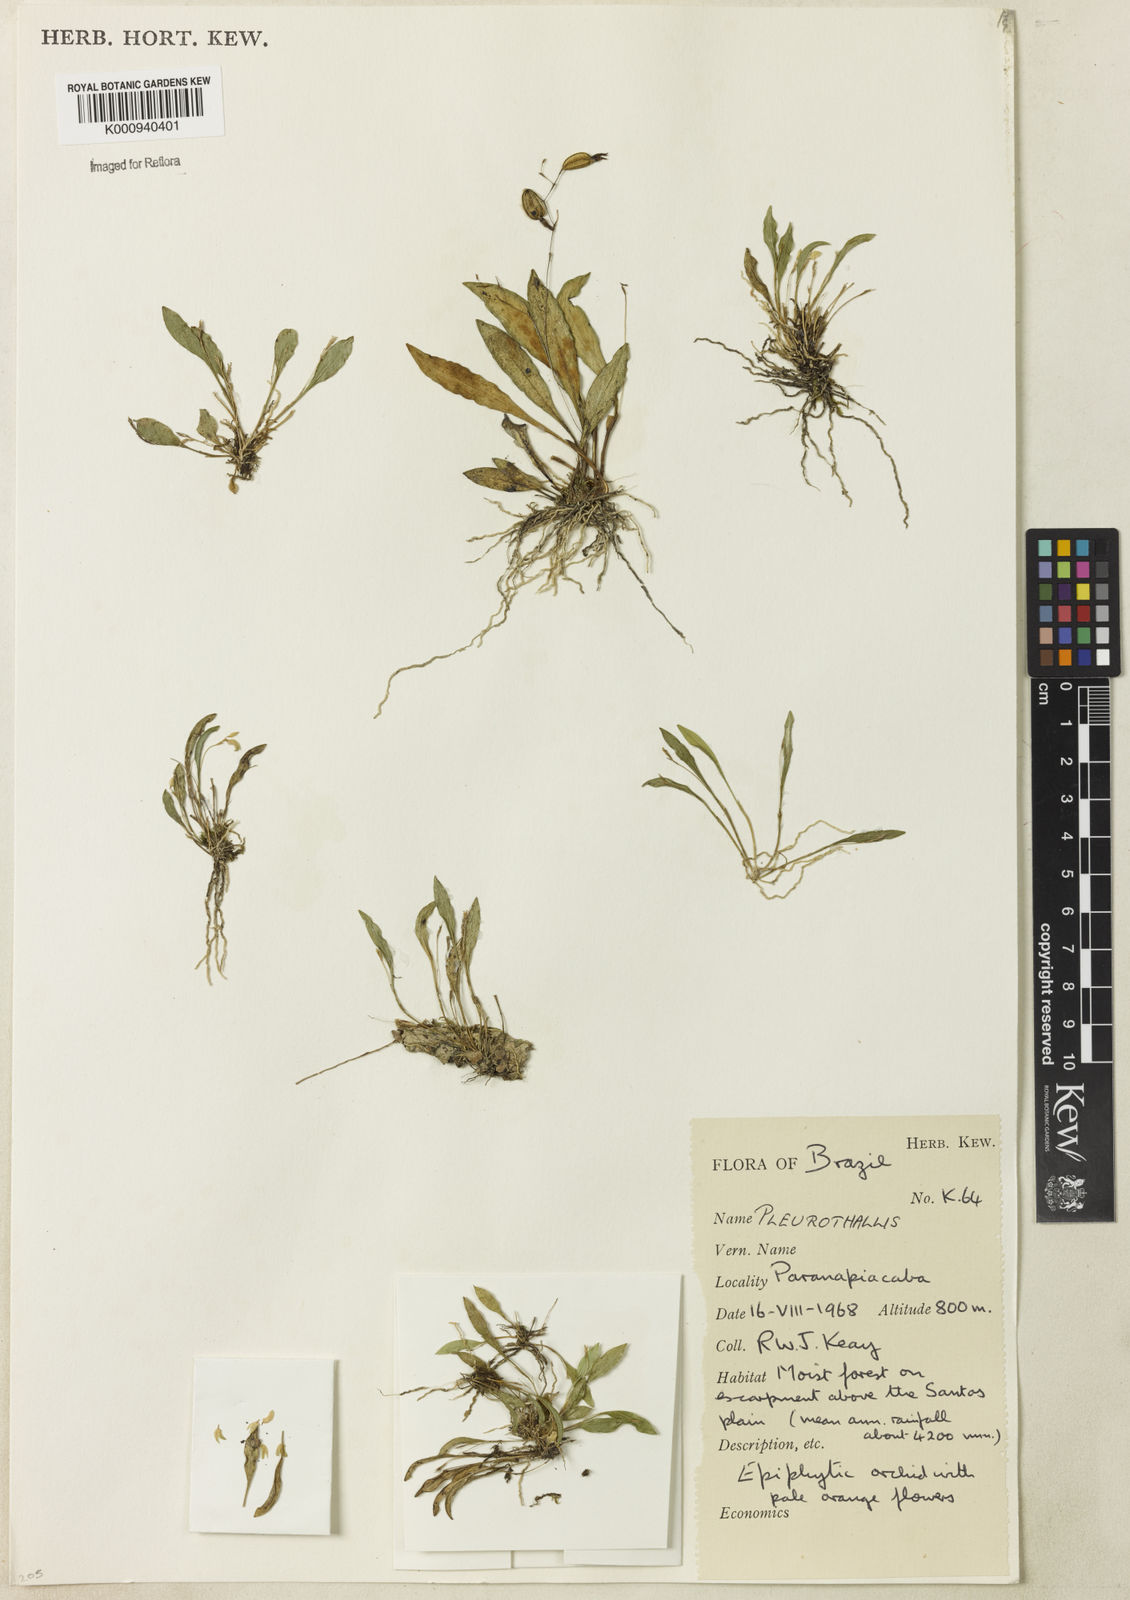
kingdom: Plantae
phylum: Tracheophyta
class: Liliopsida
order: Asparagales
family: Orchidaceae
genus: Pleurothallis
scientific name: Pleurothallis
